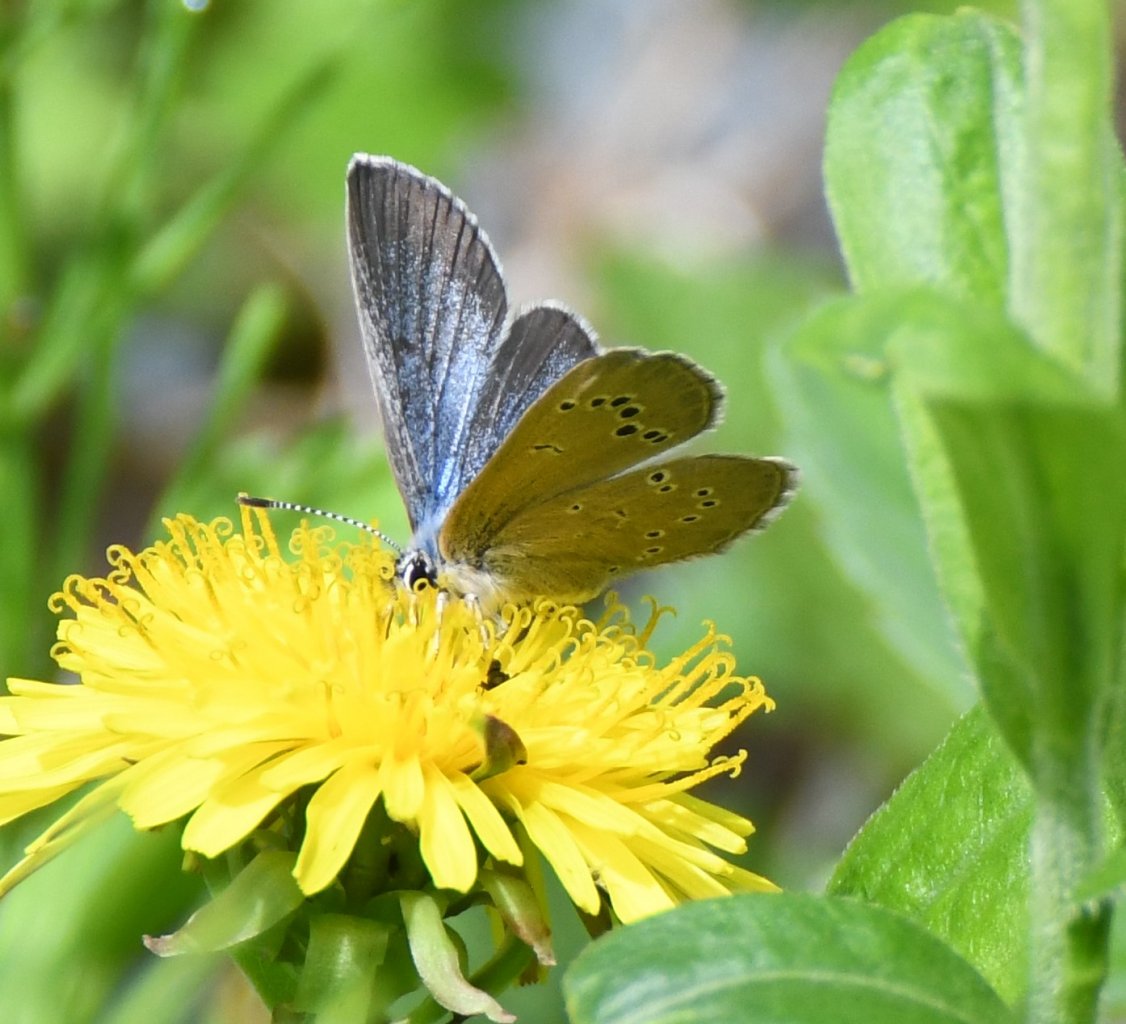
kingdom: Animalia
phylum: Arthropoda
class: Insecta
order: Lepidoptera
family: Lycaenidae
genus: Glaucopsyche
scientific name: Glaucopsyche lygdamus
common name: Silvery Blue
